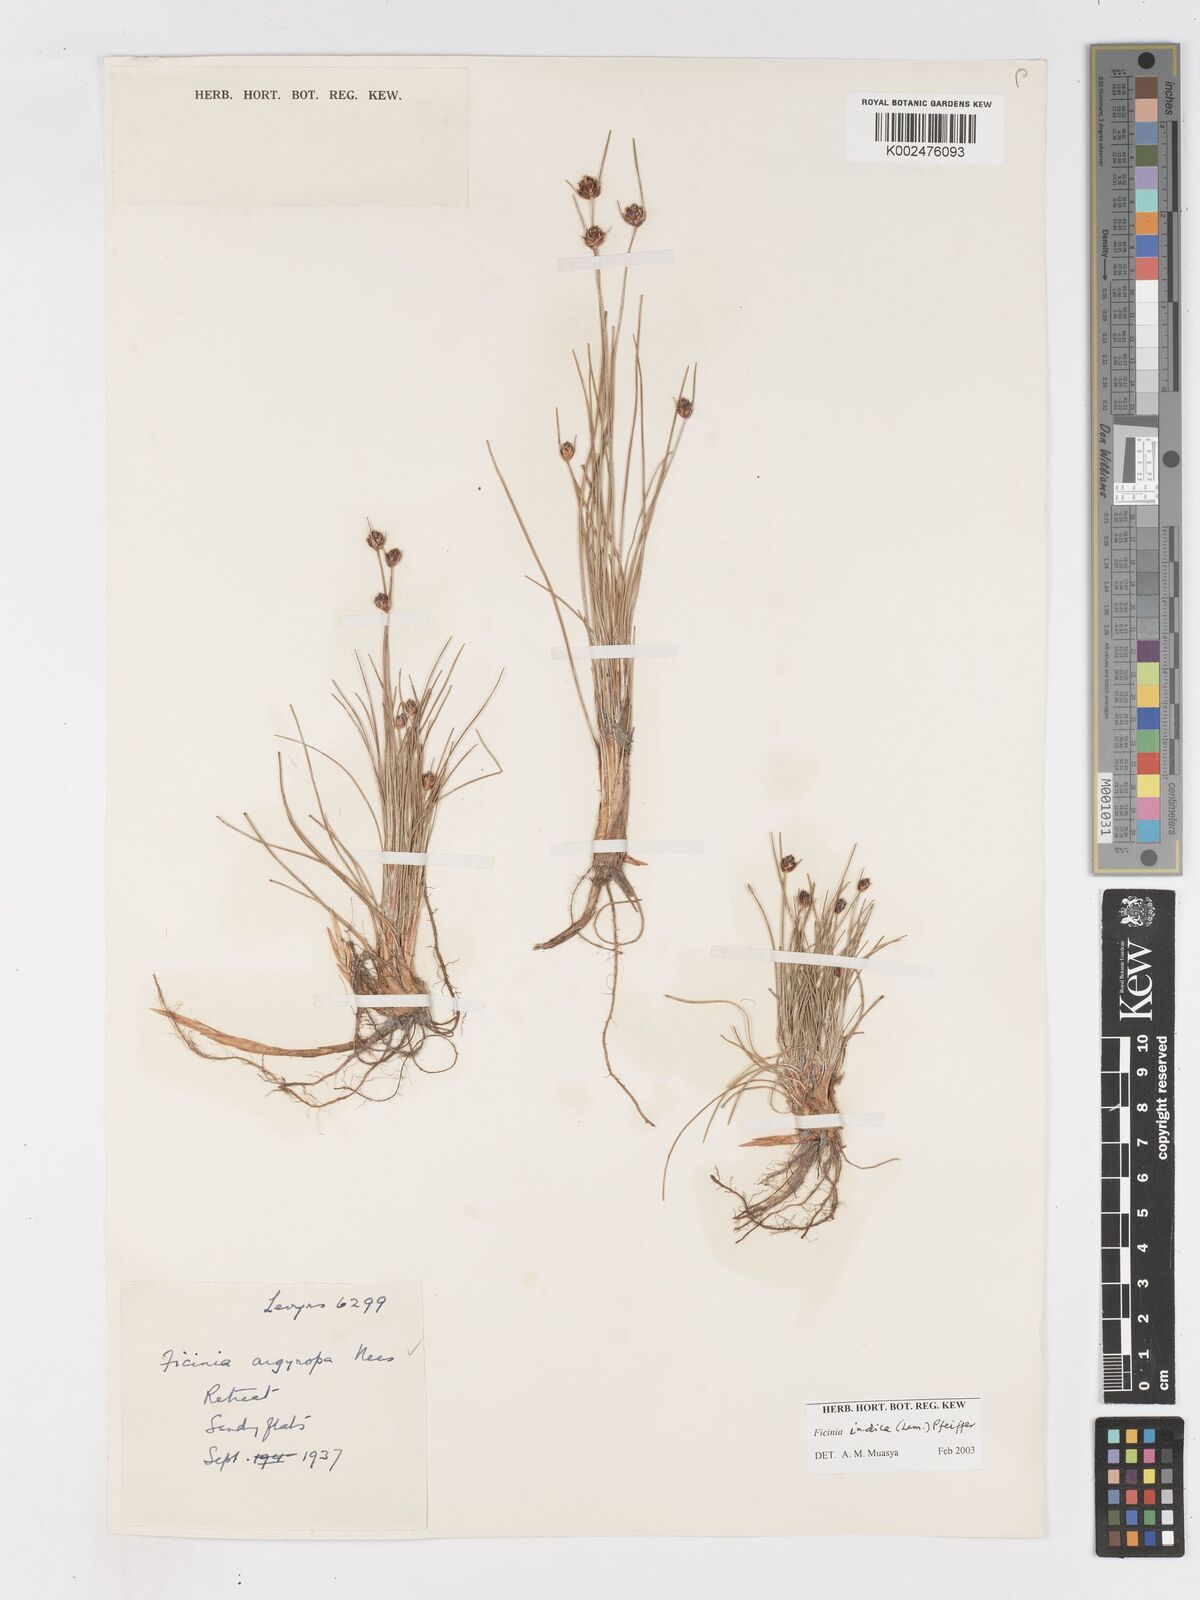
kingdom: Plantae
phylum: Tracheophyta
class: Liliopsida
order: Poales
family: Cyperaceae
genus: Ficinia
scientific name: Ficinia indica
